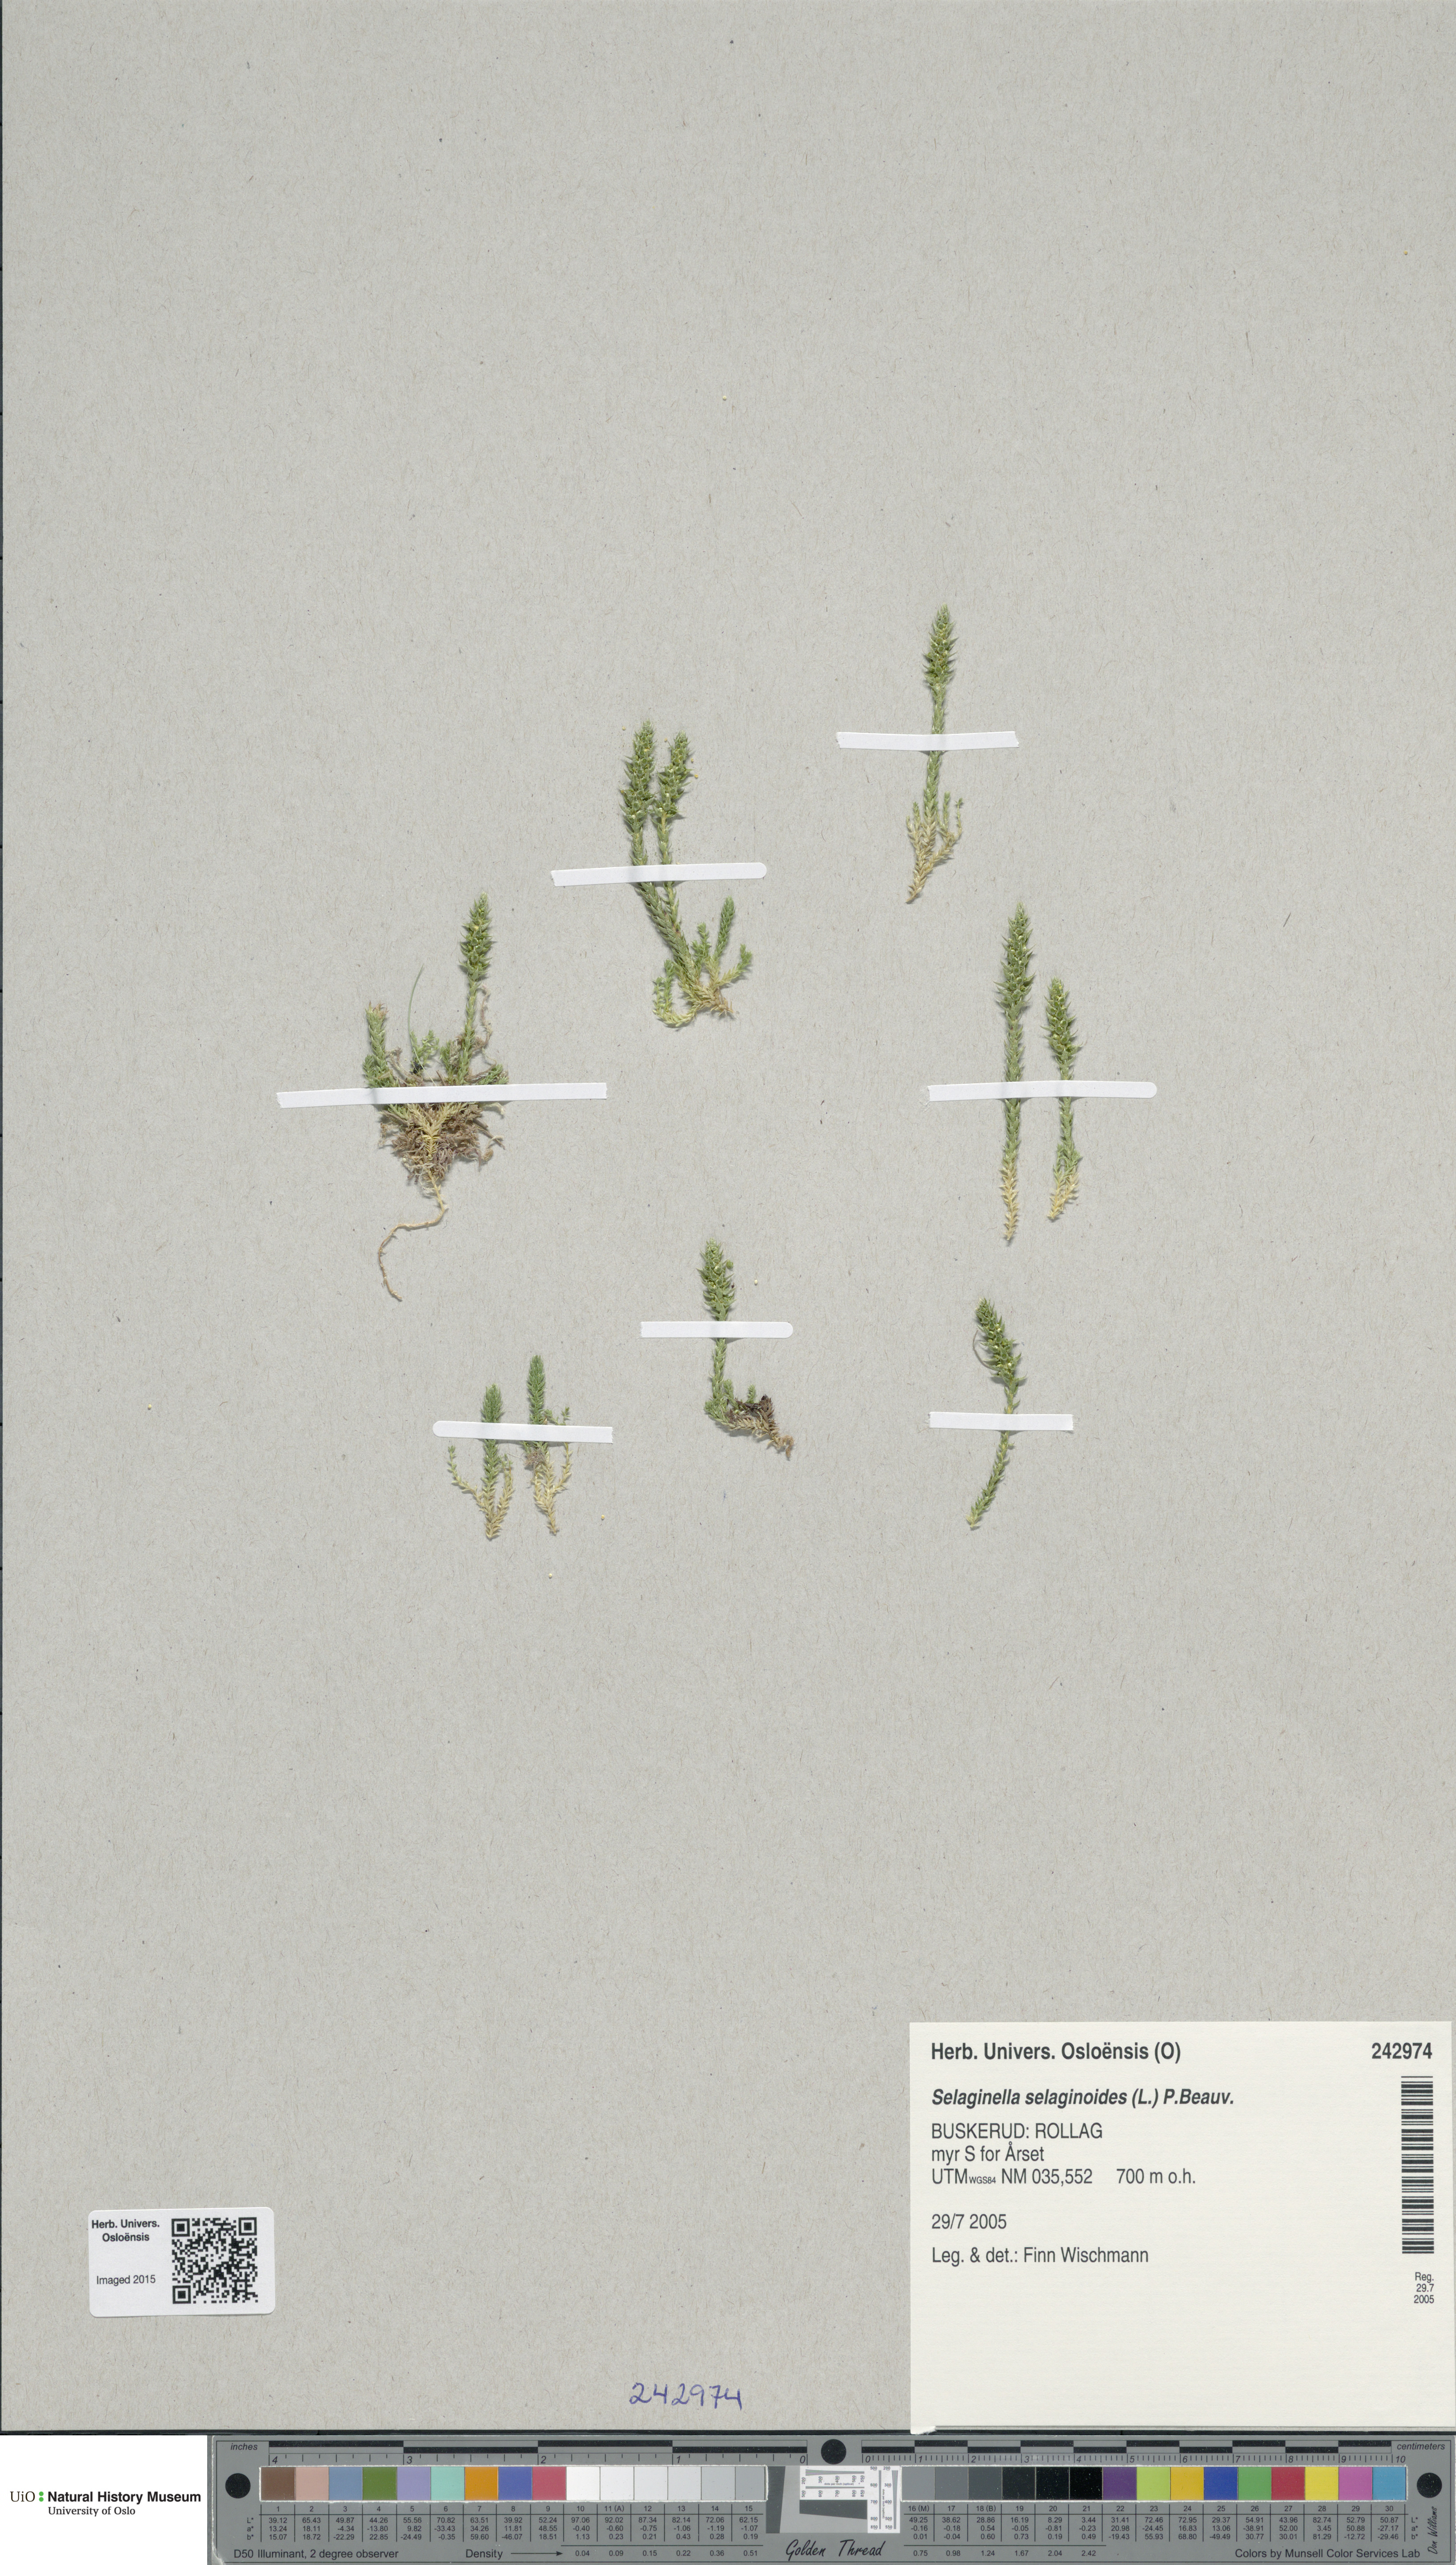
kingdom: Plantae
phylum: Tracheophyta
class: Lycopodiopsida
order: Selaginellales
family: Selaginellaceae
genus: Selaginella
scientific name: Selaginella selaginoides
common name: Prickly mountain-moss
